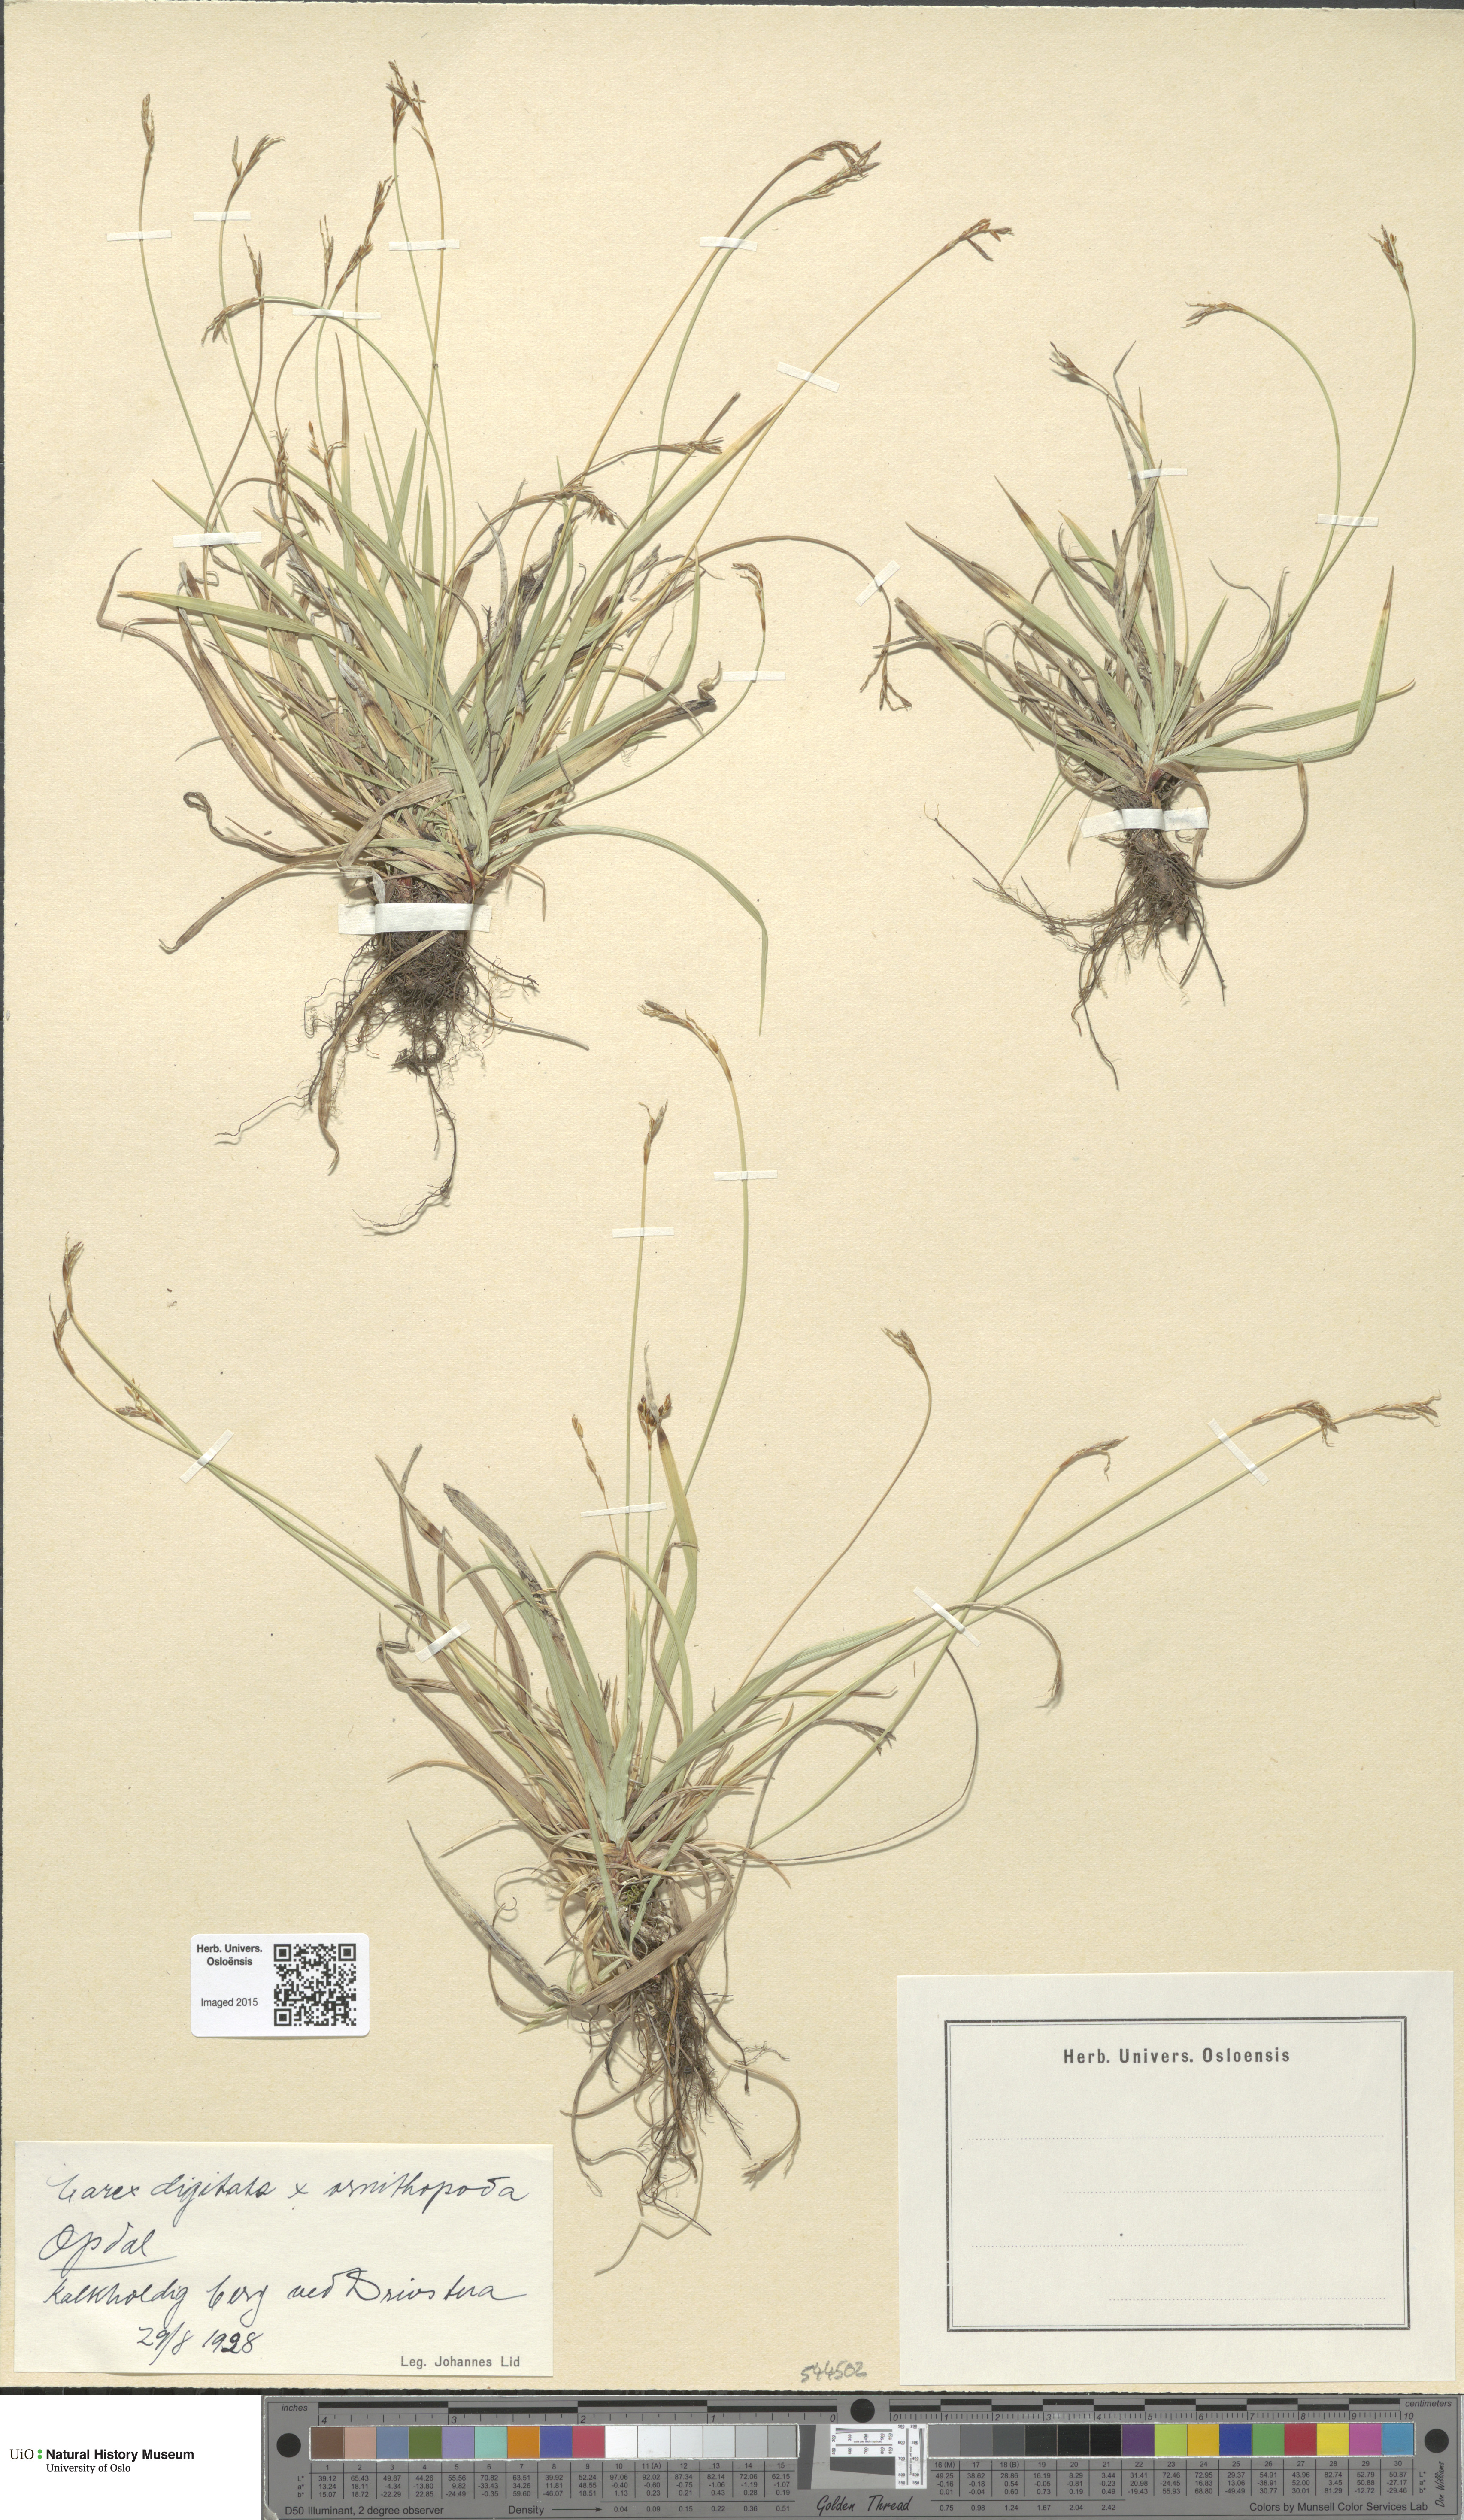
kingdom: Plantae
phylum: Tracheophyta
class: Liliopsida
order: Poales
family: Cyperaceae
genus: Carex
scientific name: Carex
